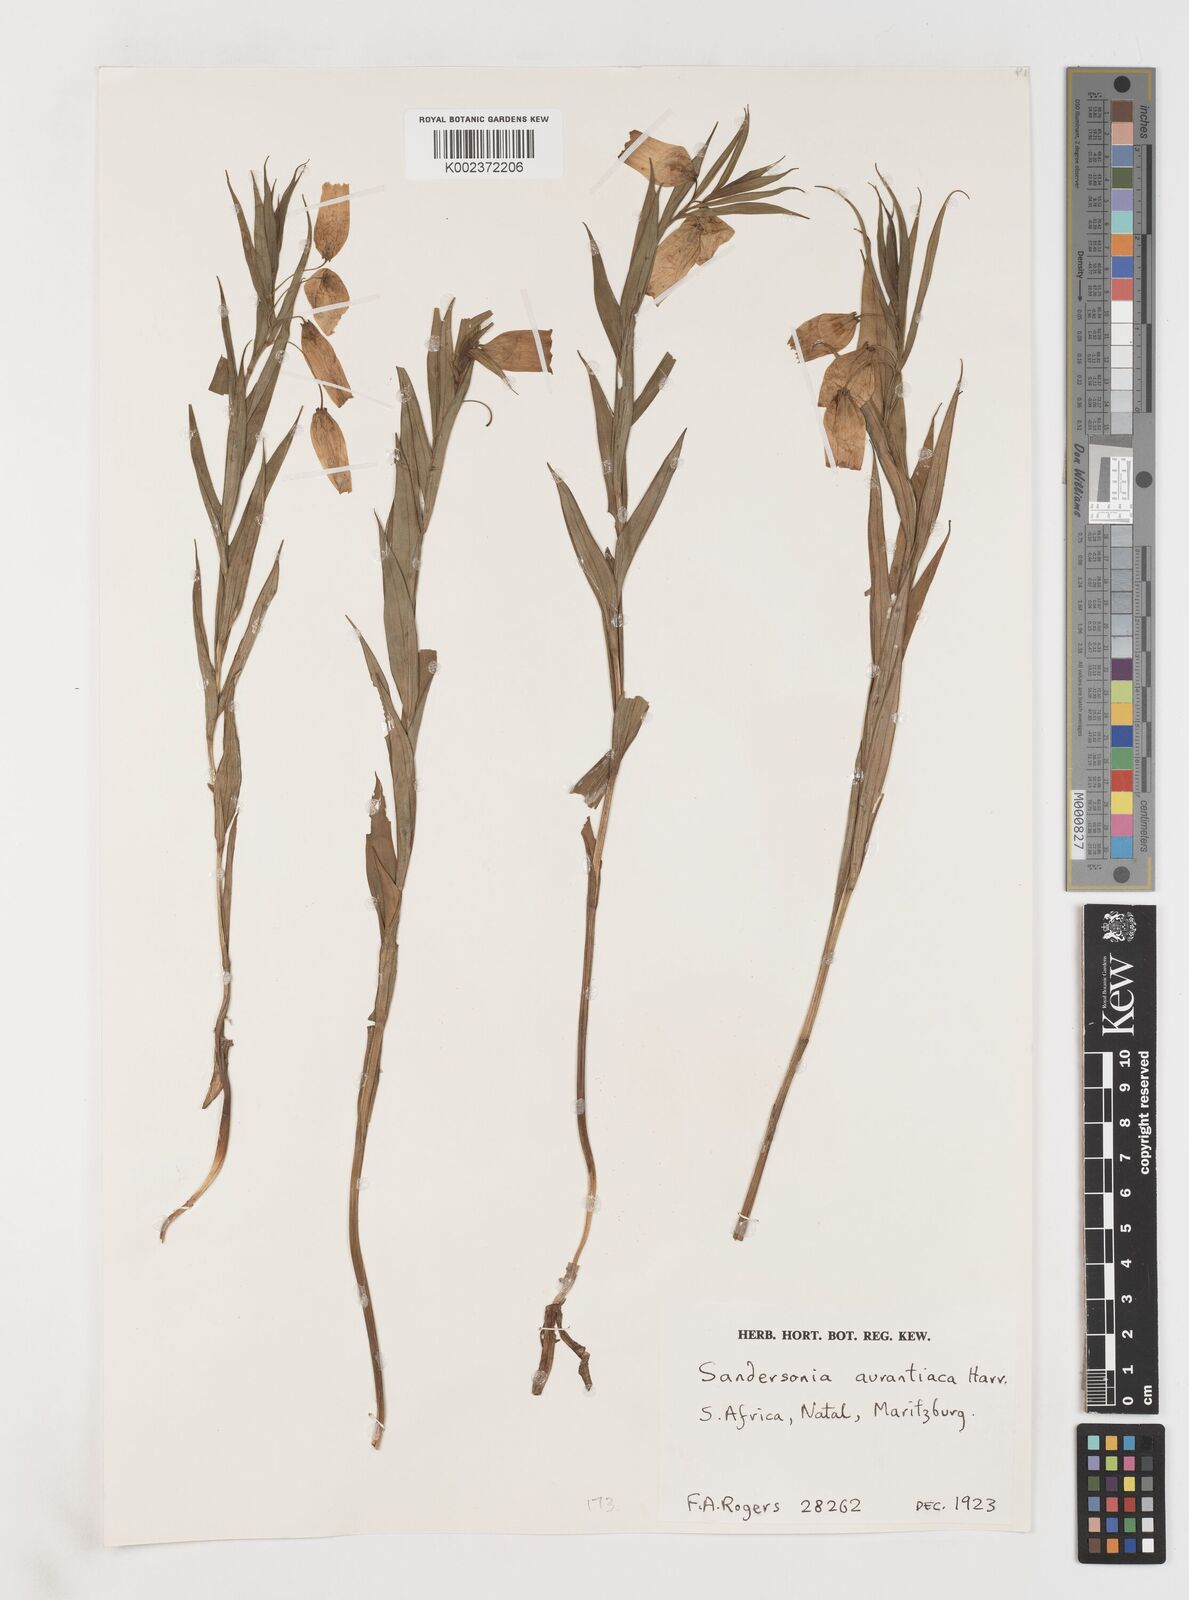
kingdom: Plantae
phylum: Tracheophyta
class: Liliopsida
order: Liliales
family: Colchicaceae
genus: Sandersonia
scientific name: Sandersonia aurantiaca
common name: Chinese-lantern-lily
